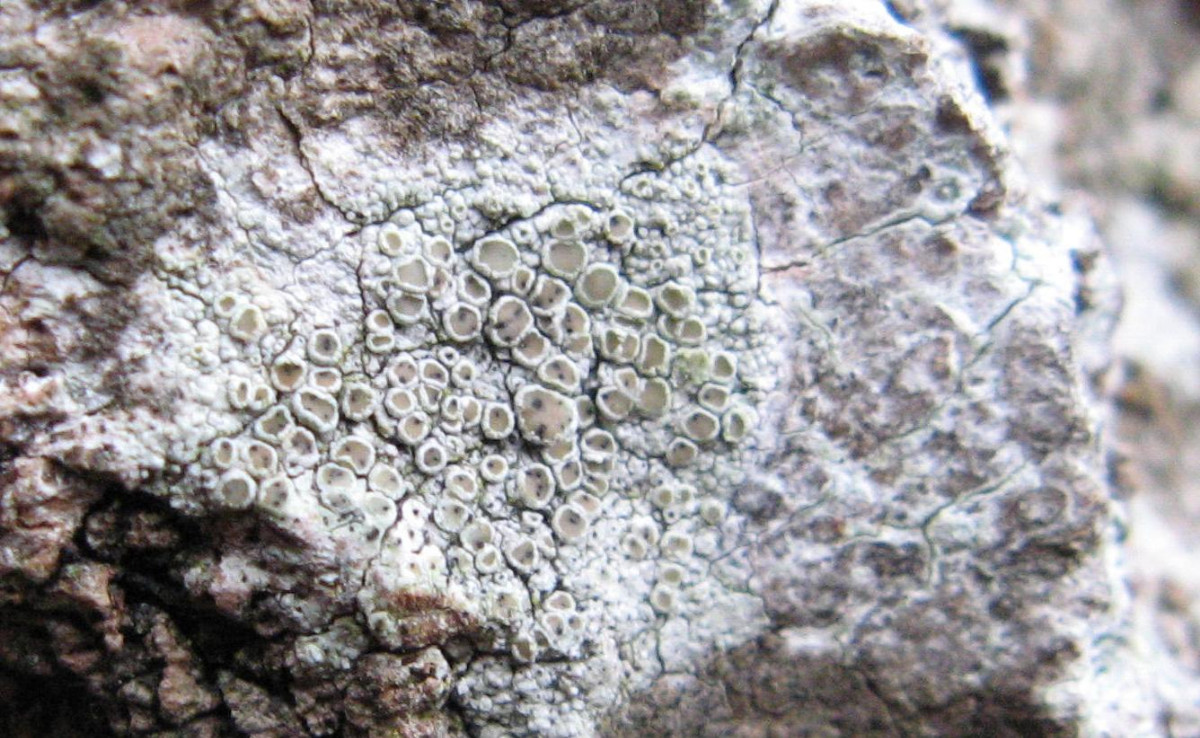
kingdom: Fungi
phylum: Ascomycota
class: Lecanoromycetes
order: Lecanorales
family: Lecanoraceae
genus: Lecanora
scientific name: Lecanora chlarotera
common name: brun kantskivelav
